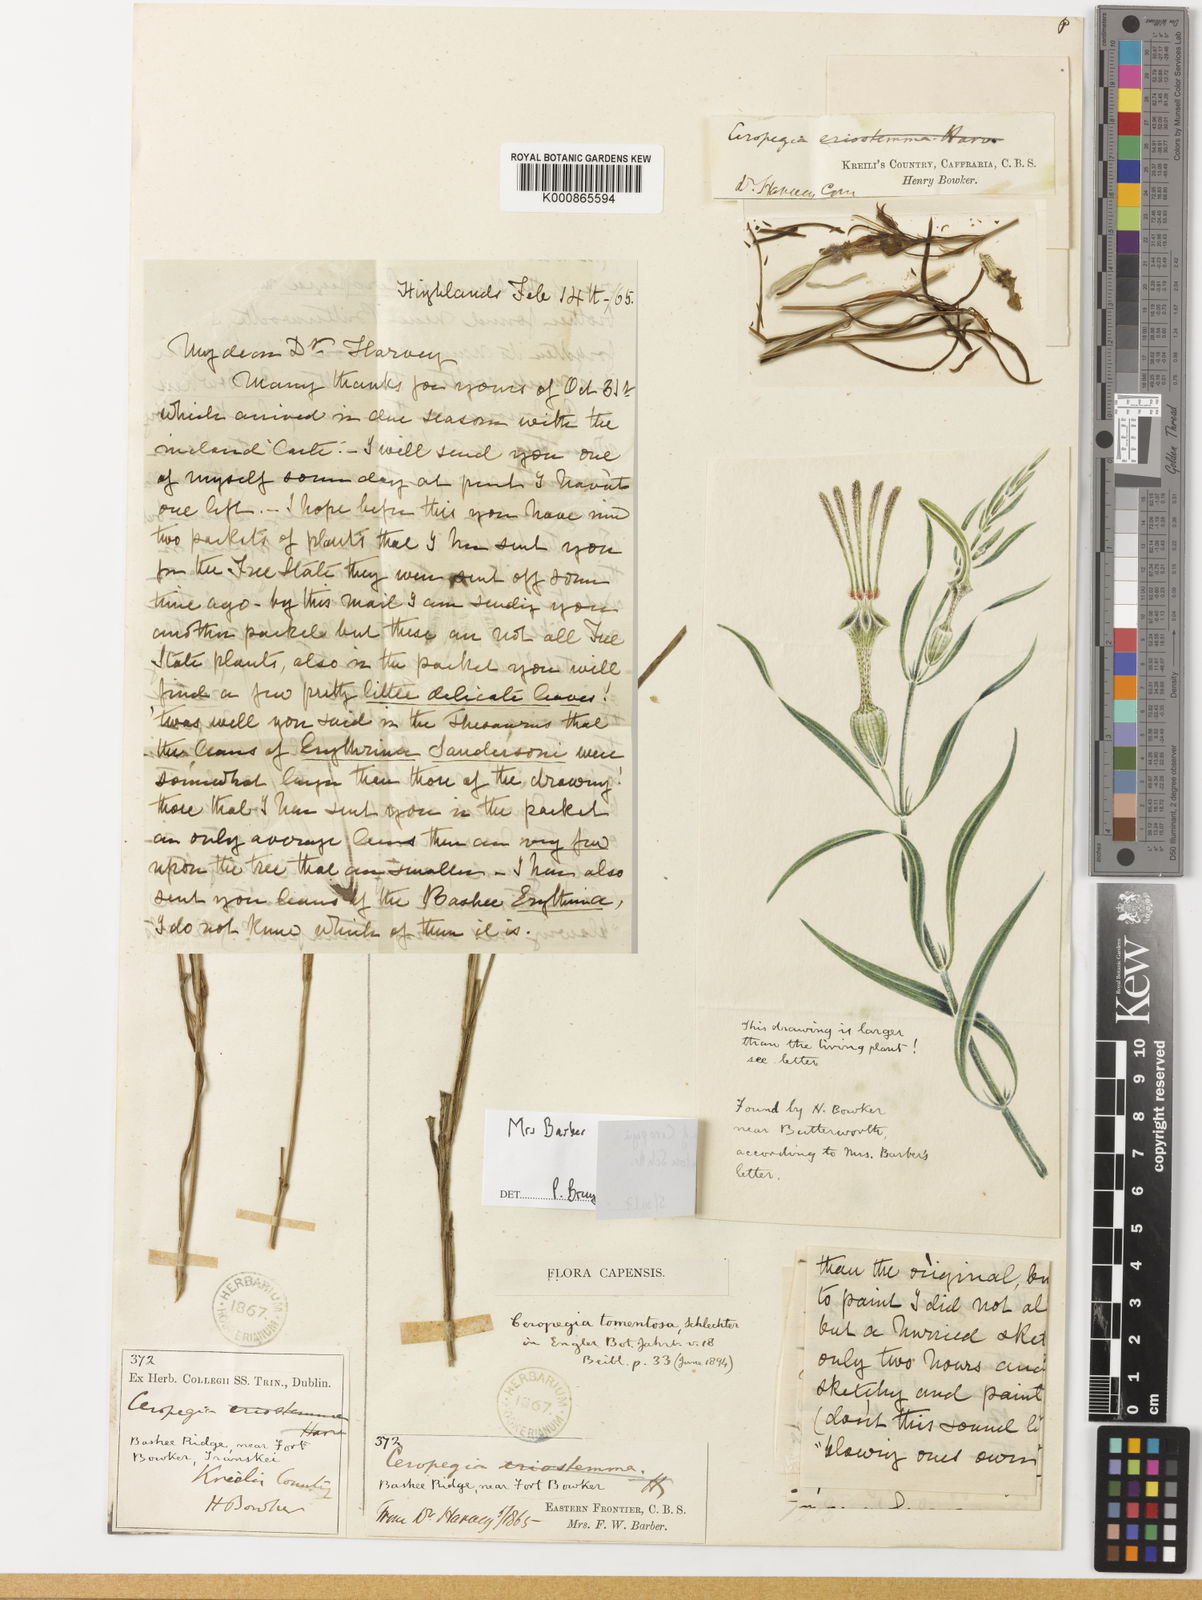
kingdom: Plantae
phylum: Tracheophyta
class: Magnoliopsida
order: Gentianales
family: Apocynaceae
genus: Ceropegia
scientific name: Ceropegia tomentosa
